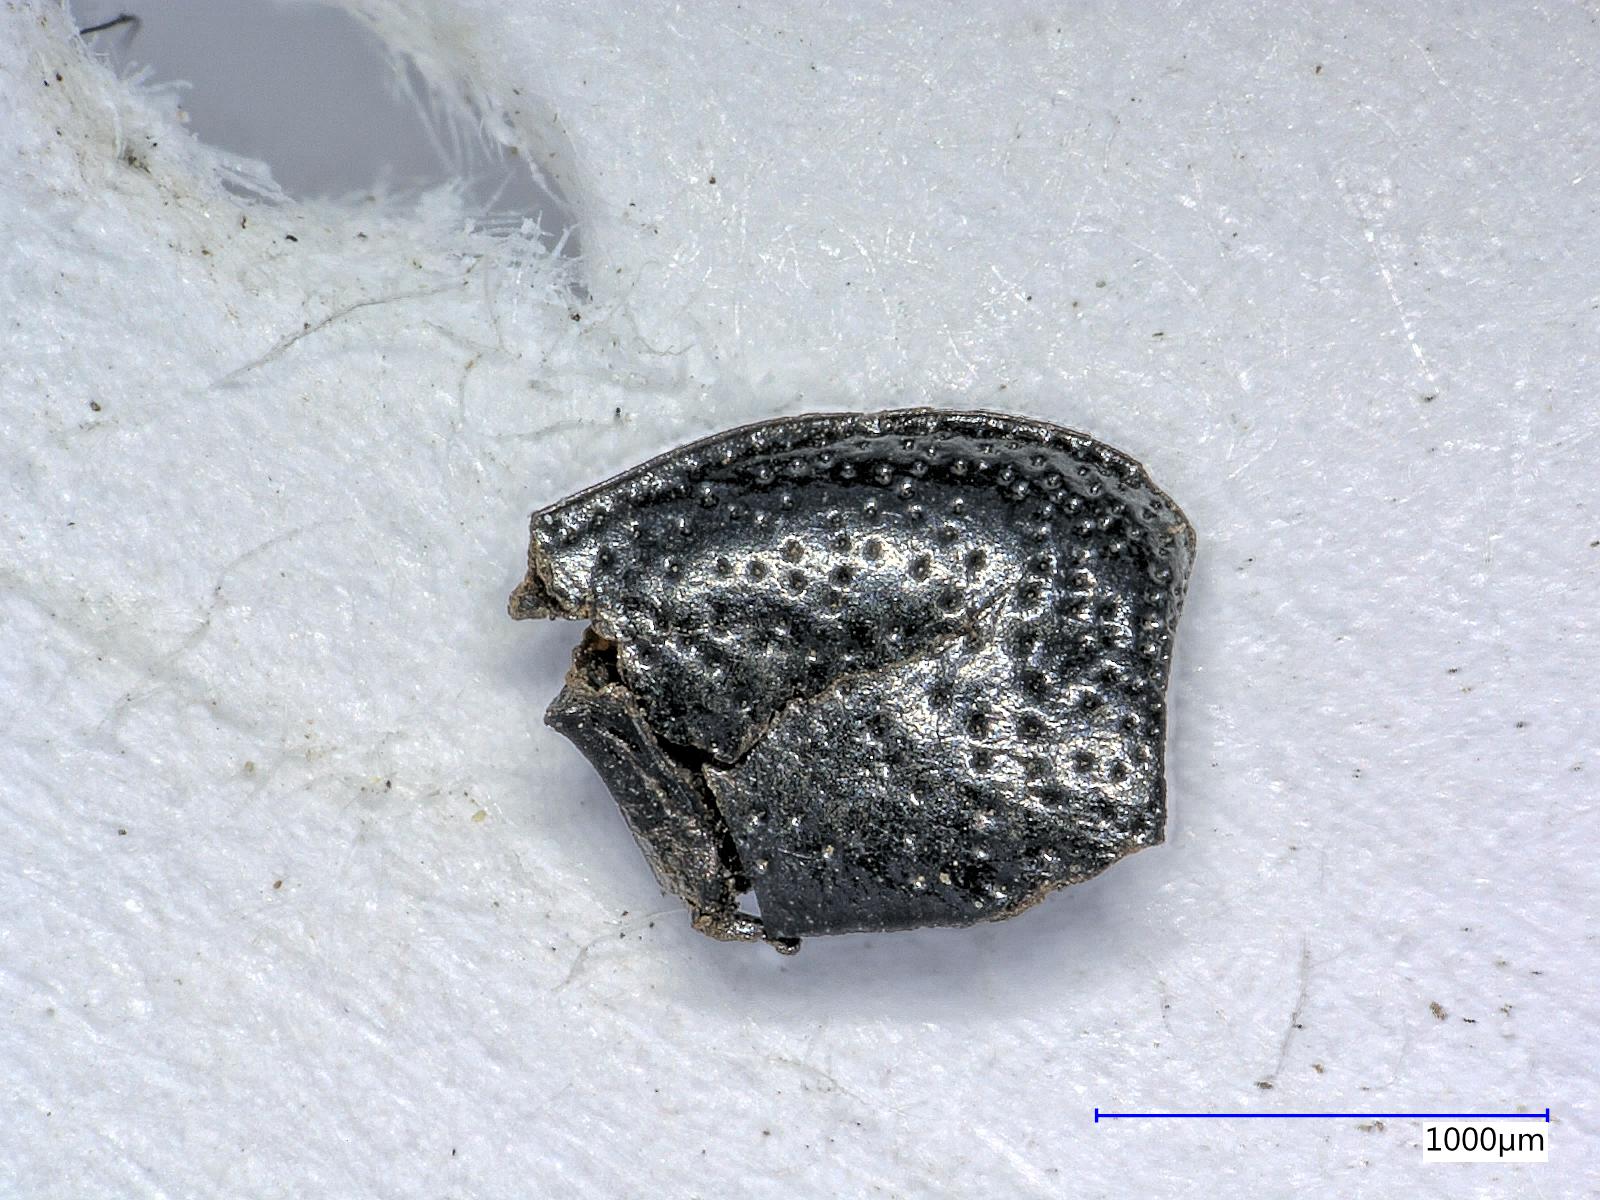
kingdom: Animalia
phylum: Arthropoda
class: Insecta
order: Coleoptera
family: Carabidae
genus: Dicheirus
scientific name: Dicheirus
